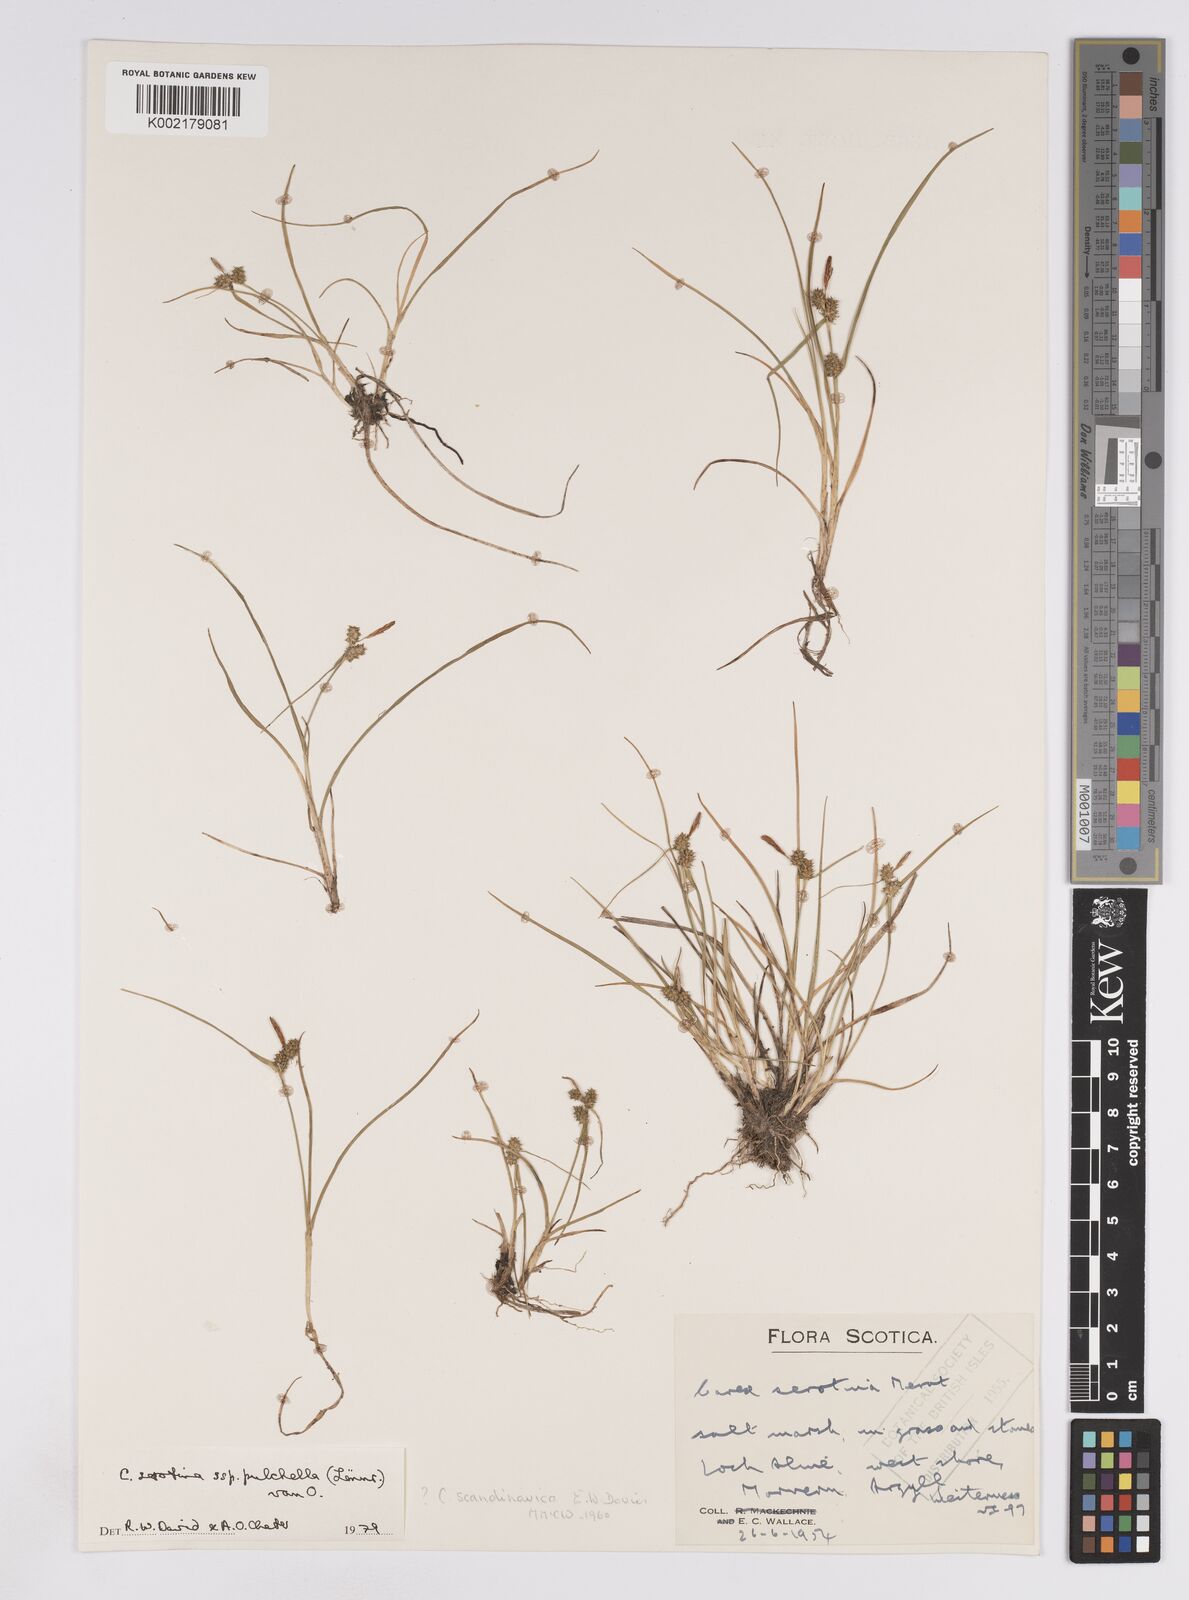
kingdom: Plantae
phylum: Tracheophyta
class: Liliopsida
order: Poales
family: Cyperaceae
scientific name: Cyperaceae
